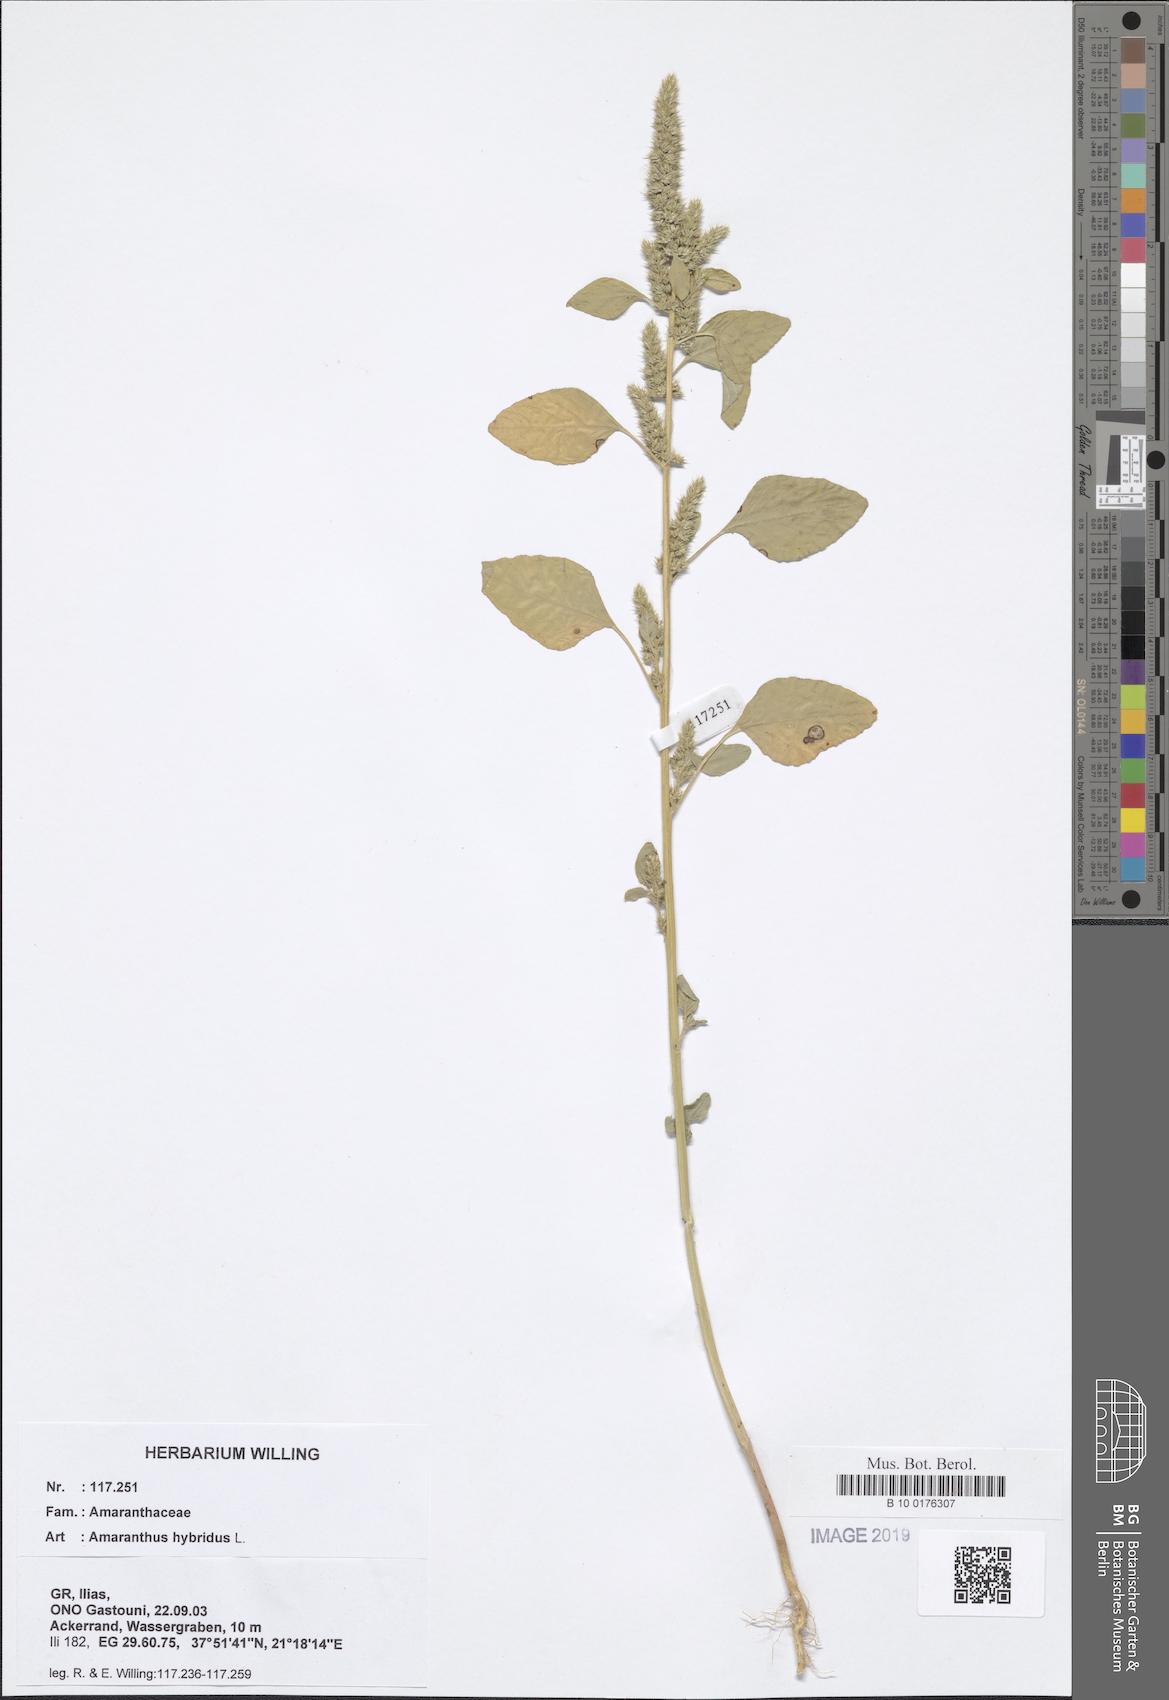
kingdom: Plantae
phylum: Tracheophyta
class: Magnoliopsida
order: Caryophyllales
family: Amaranthaceae
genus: Amaranthus
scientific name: Amaranthus hybridus
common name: Green amaranth
